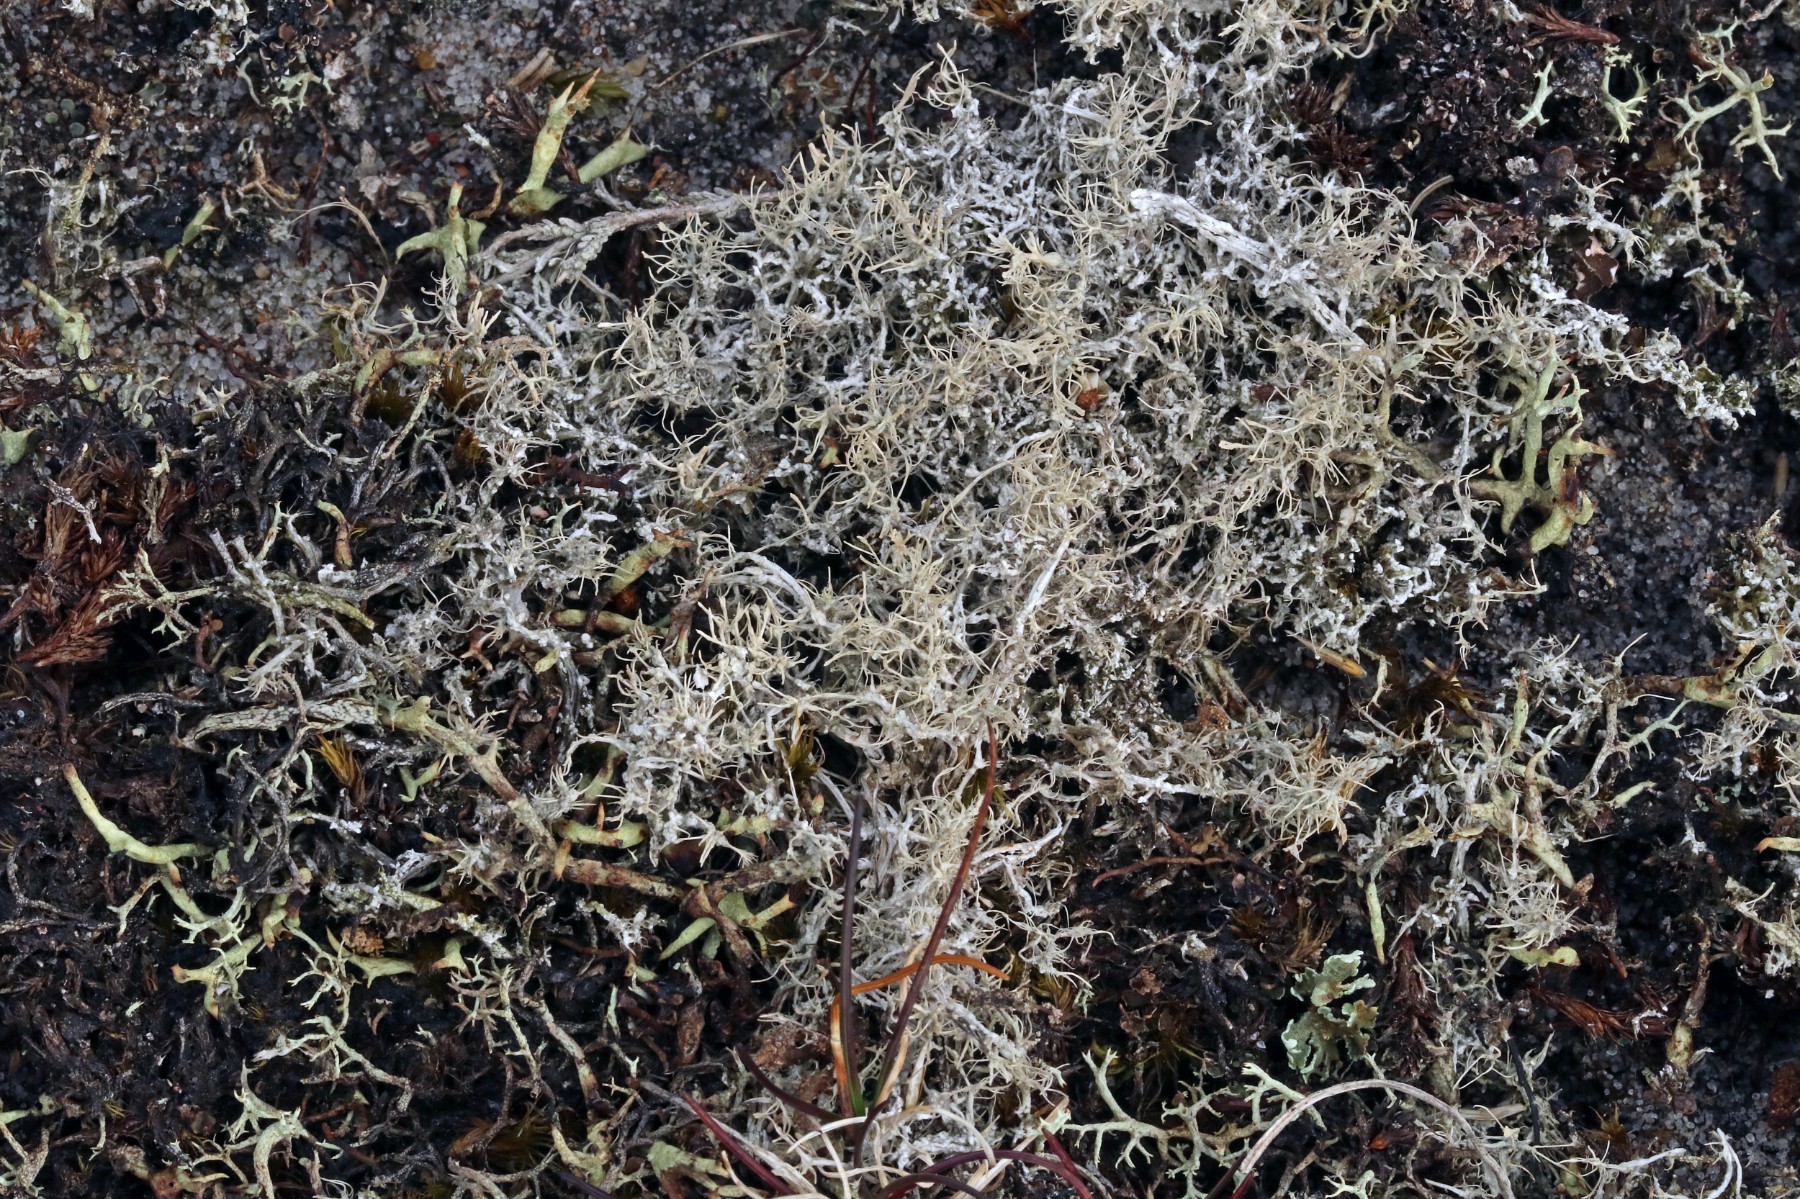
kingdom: Fungi
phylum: Ascomycota
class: Lecanoromycetes
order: Pertusariales
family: Ochrolechiaceae
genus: Ochrolechia
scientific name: Ochrolechia frigida
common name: fjeld-blegskivelav
